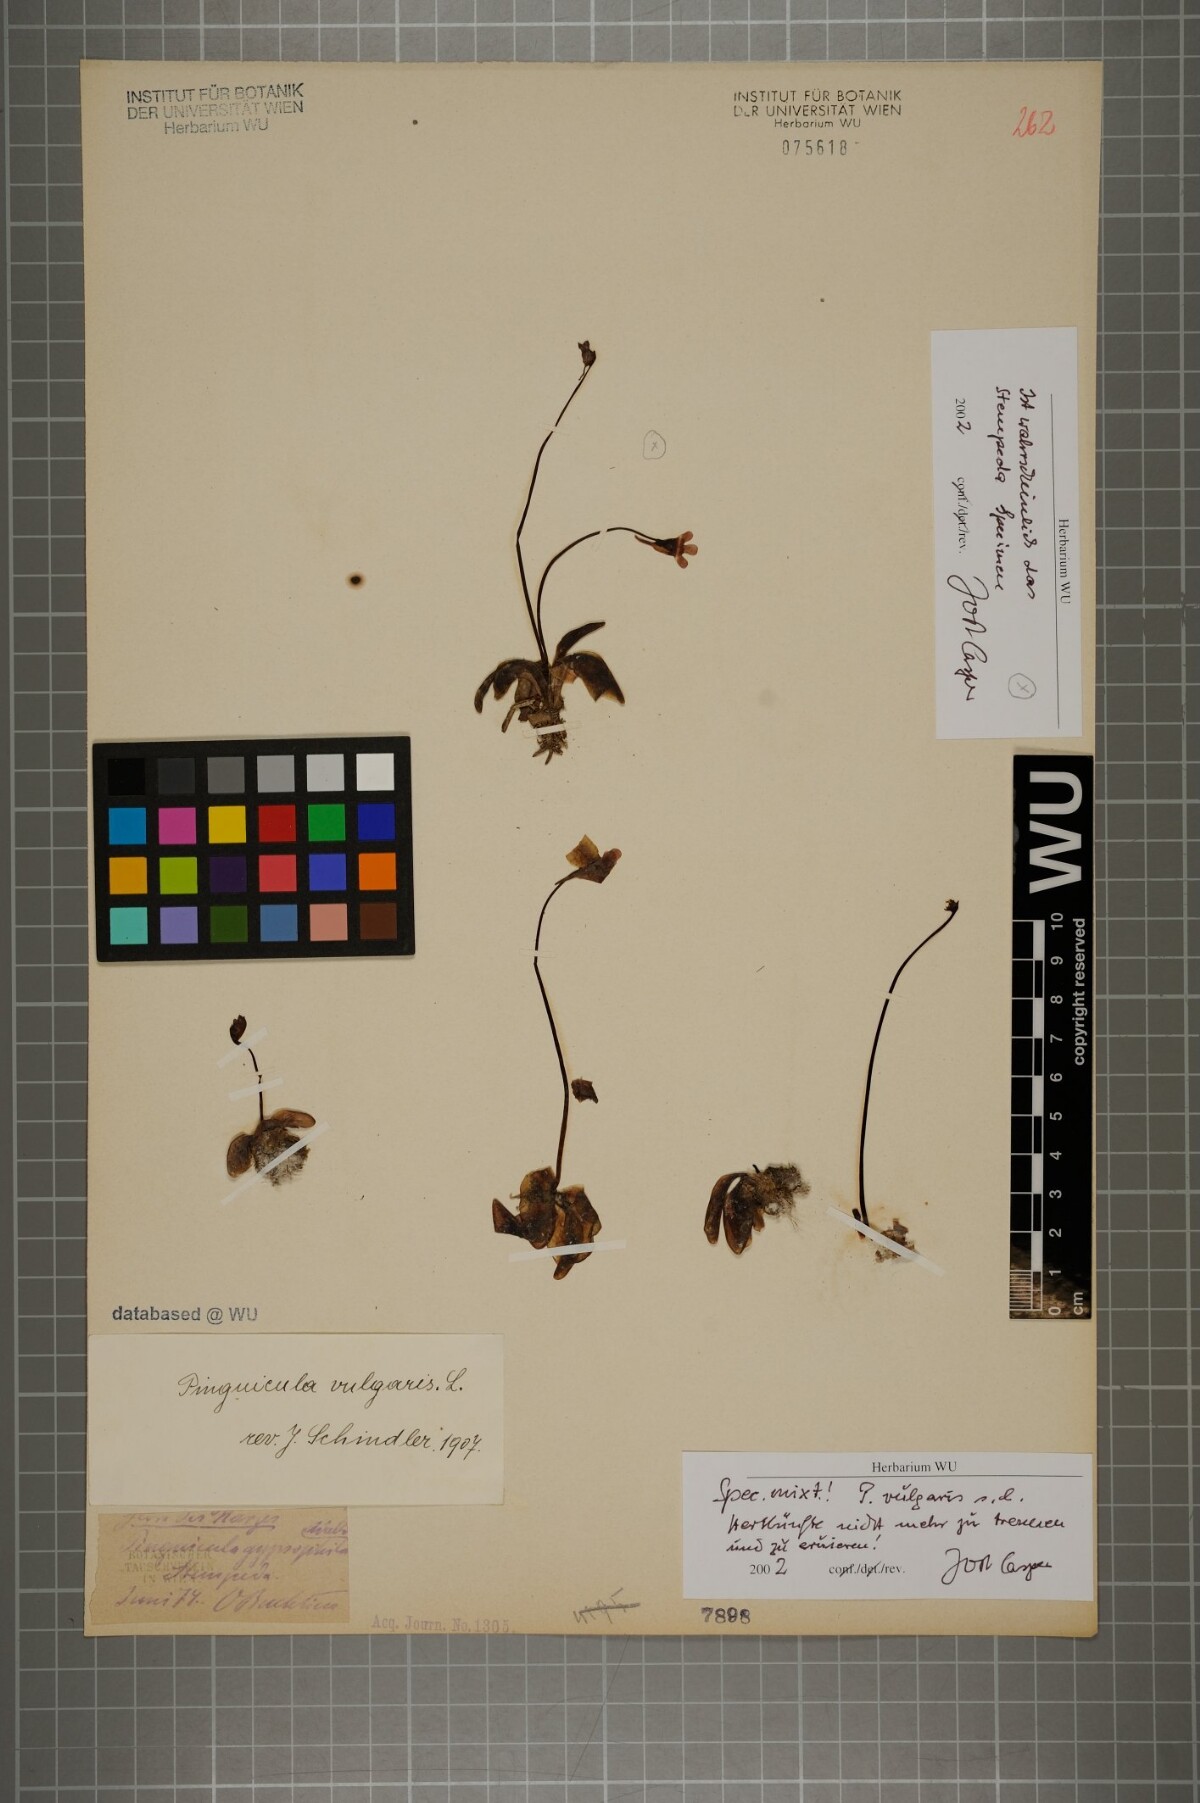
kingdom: Plantae
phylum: Tracheophyta
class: Magnoliopsida
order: Lamiales
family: Lentibulariaceae
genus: Pinguicula
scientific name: Pinguicula vulgaris
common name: Common butterwort
